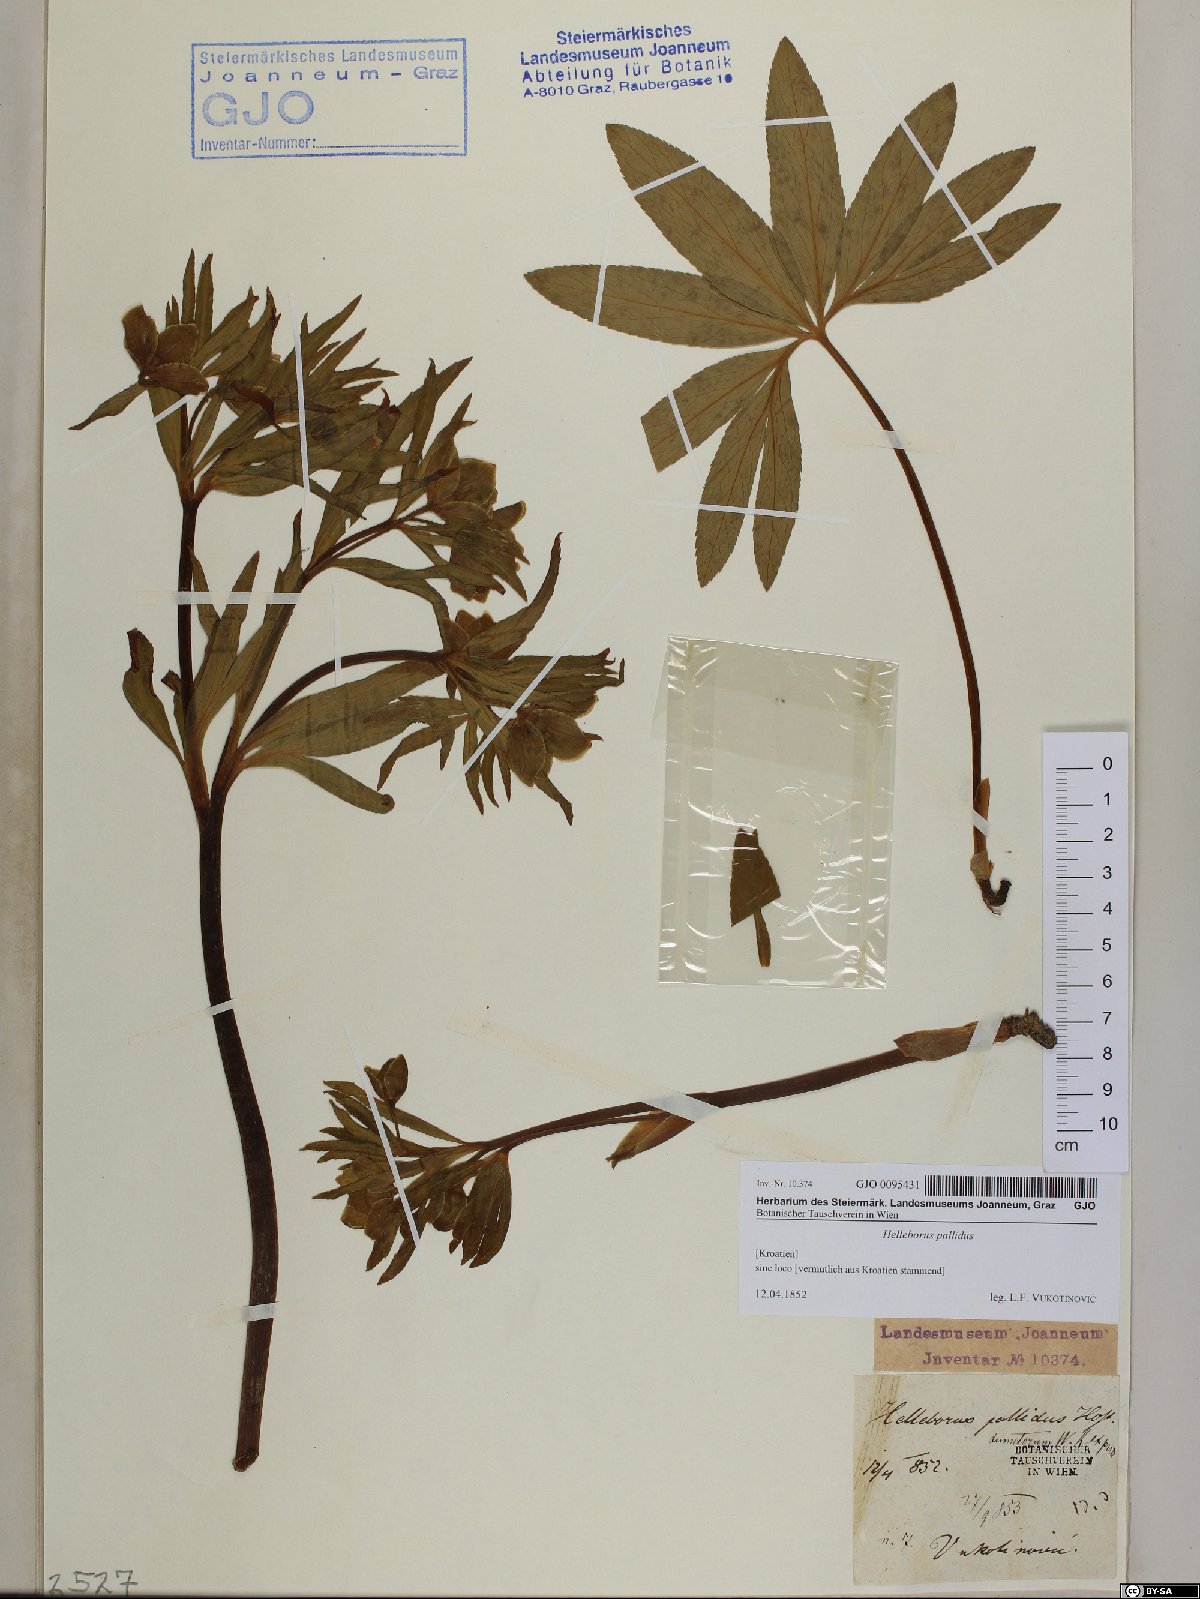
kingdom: Plantae
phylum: Tracheophyta
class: Magnoliopsida
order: Ranunculales
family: Ranunculaceae
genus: Helleborus
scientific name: Helleborus dumetorum
